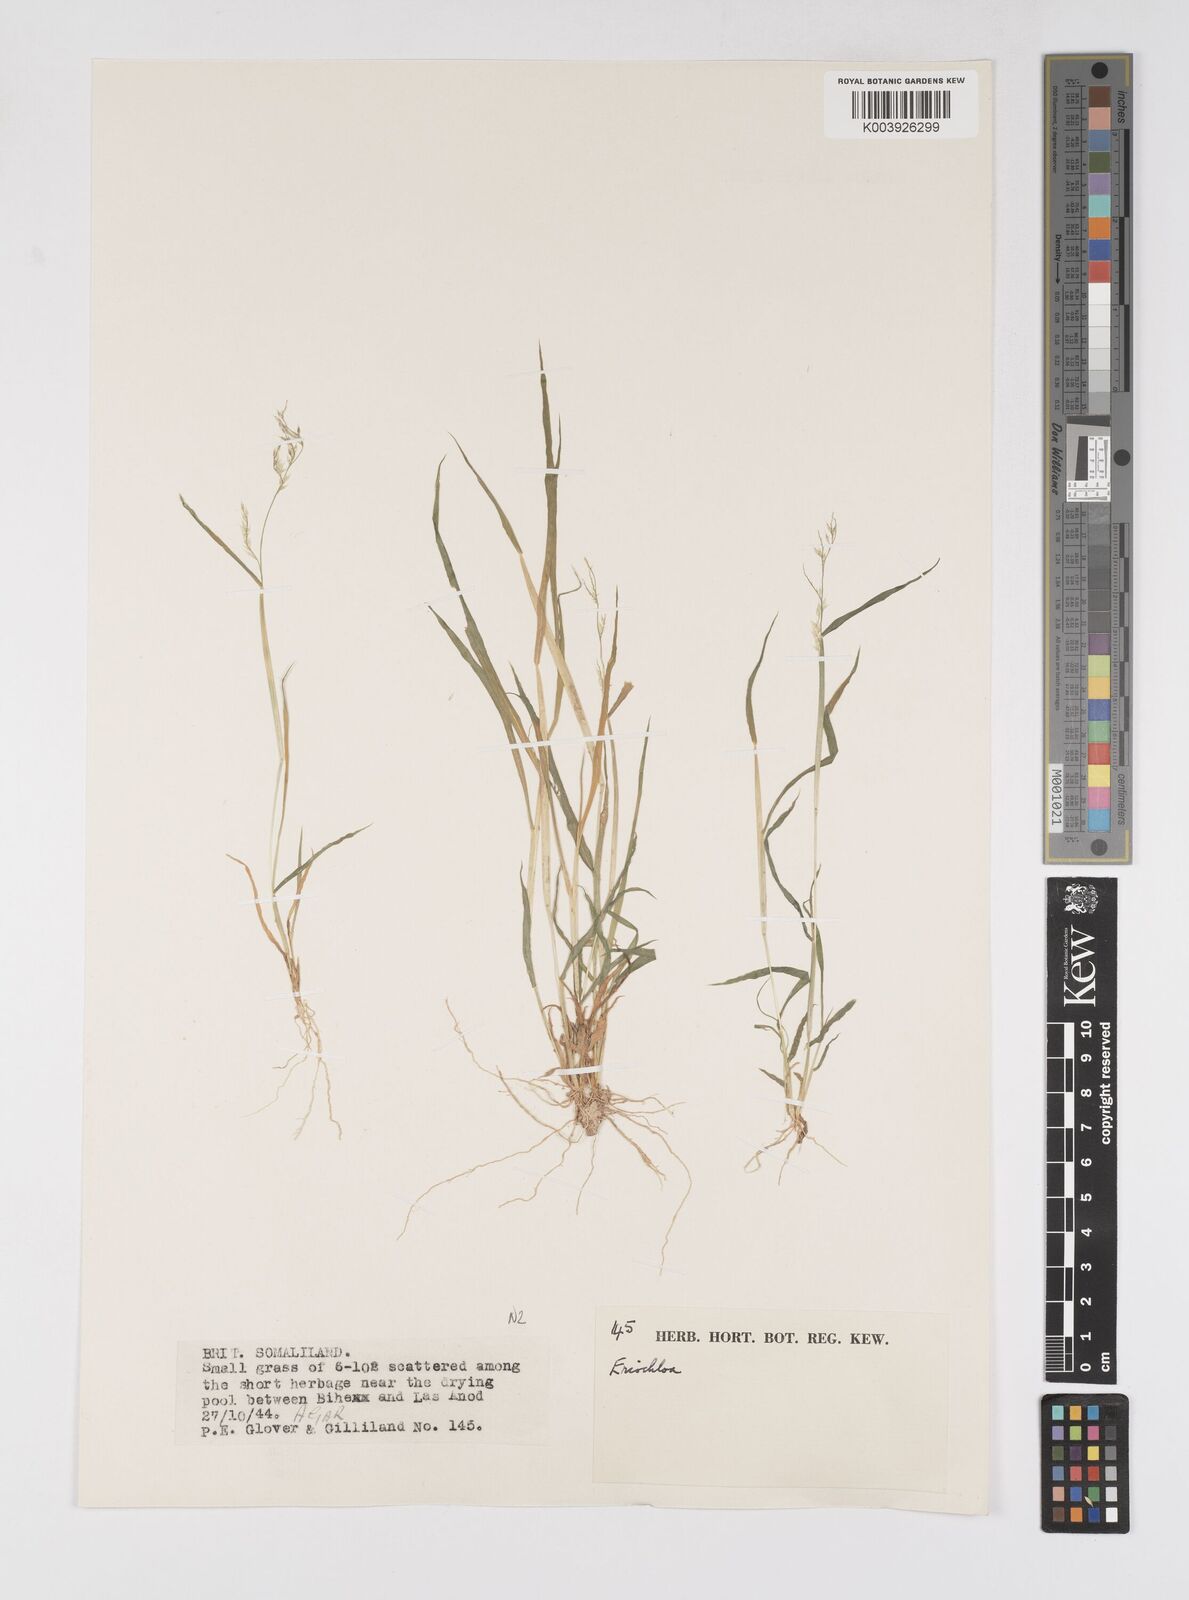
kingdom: Plantae
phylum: Tracheophyta
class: Liliopsida
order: Poales
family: Poaceae
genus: Eriochloa
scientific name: Eriochloa barbatus
